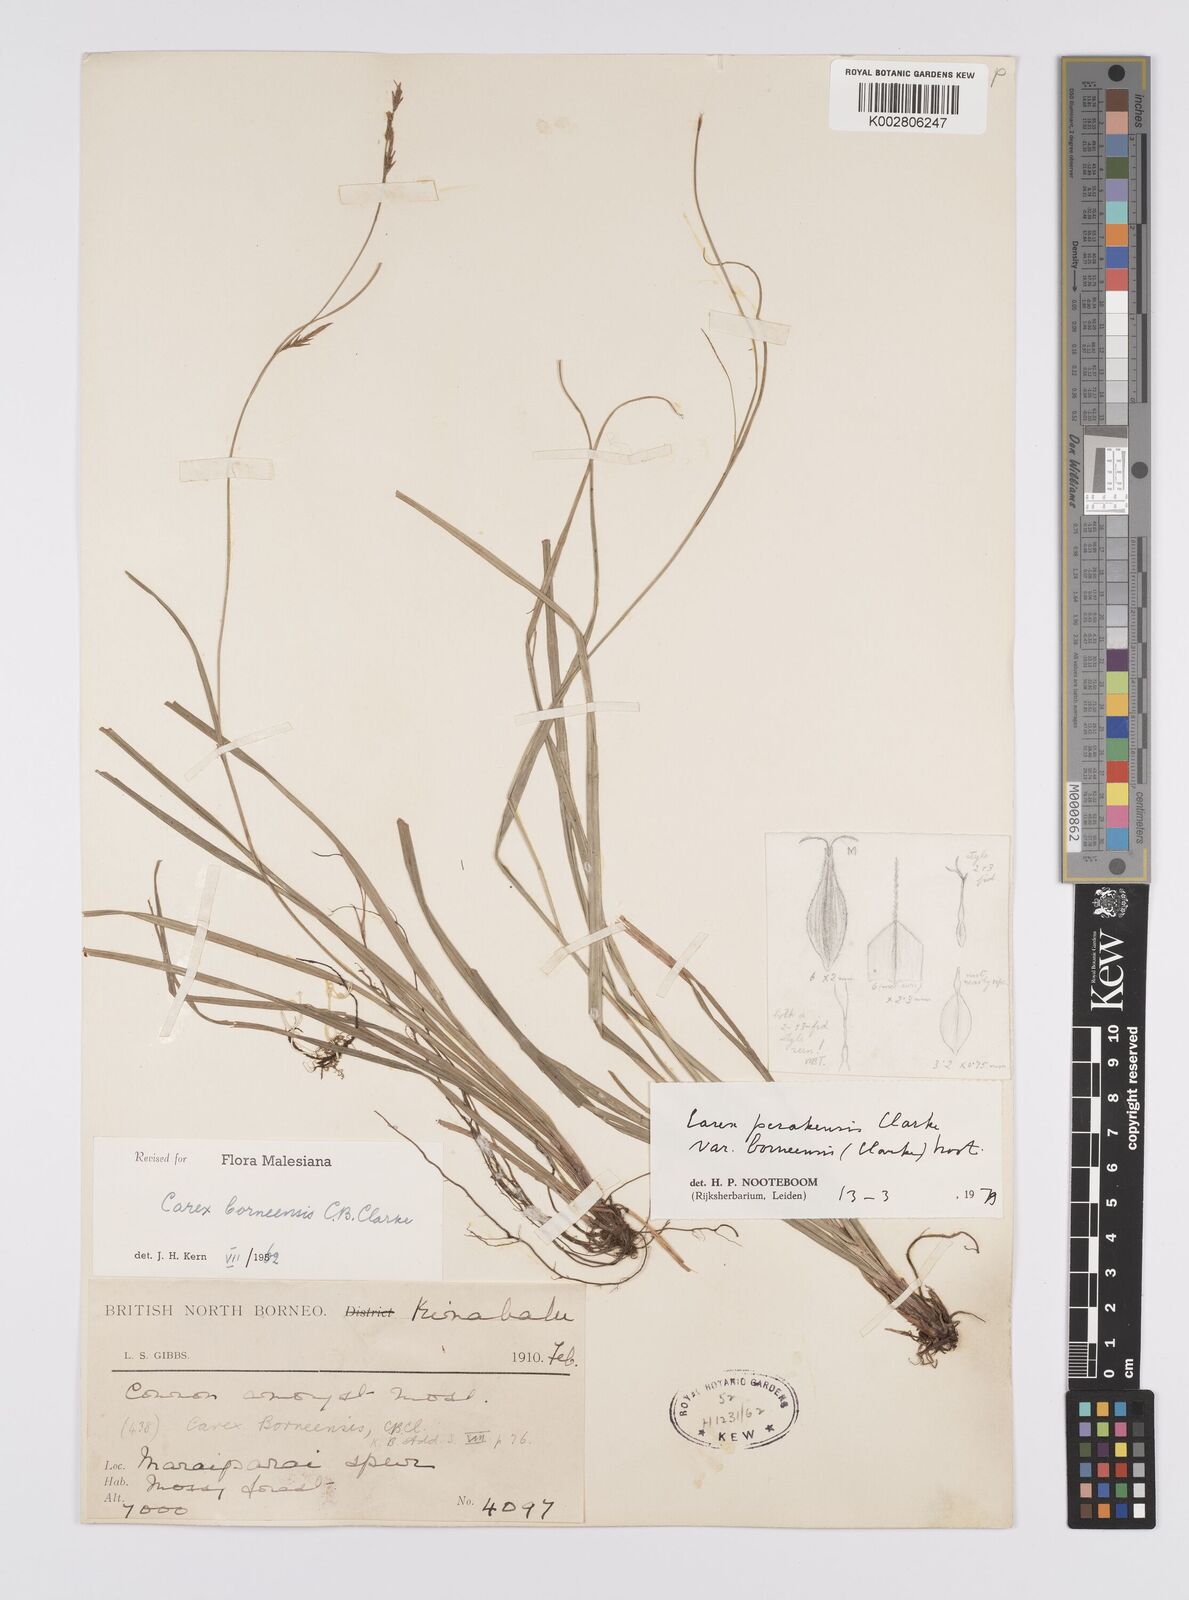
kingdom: Plantae
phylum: Tracheophyta
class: Liliopsida
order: Poales
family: Cyperaceae
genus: Carex
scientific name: Carex perakensis
